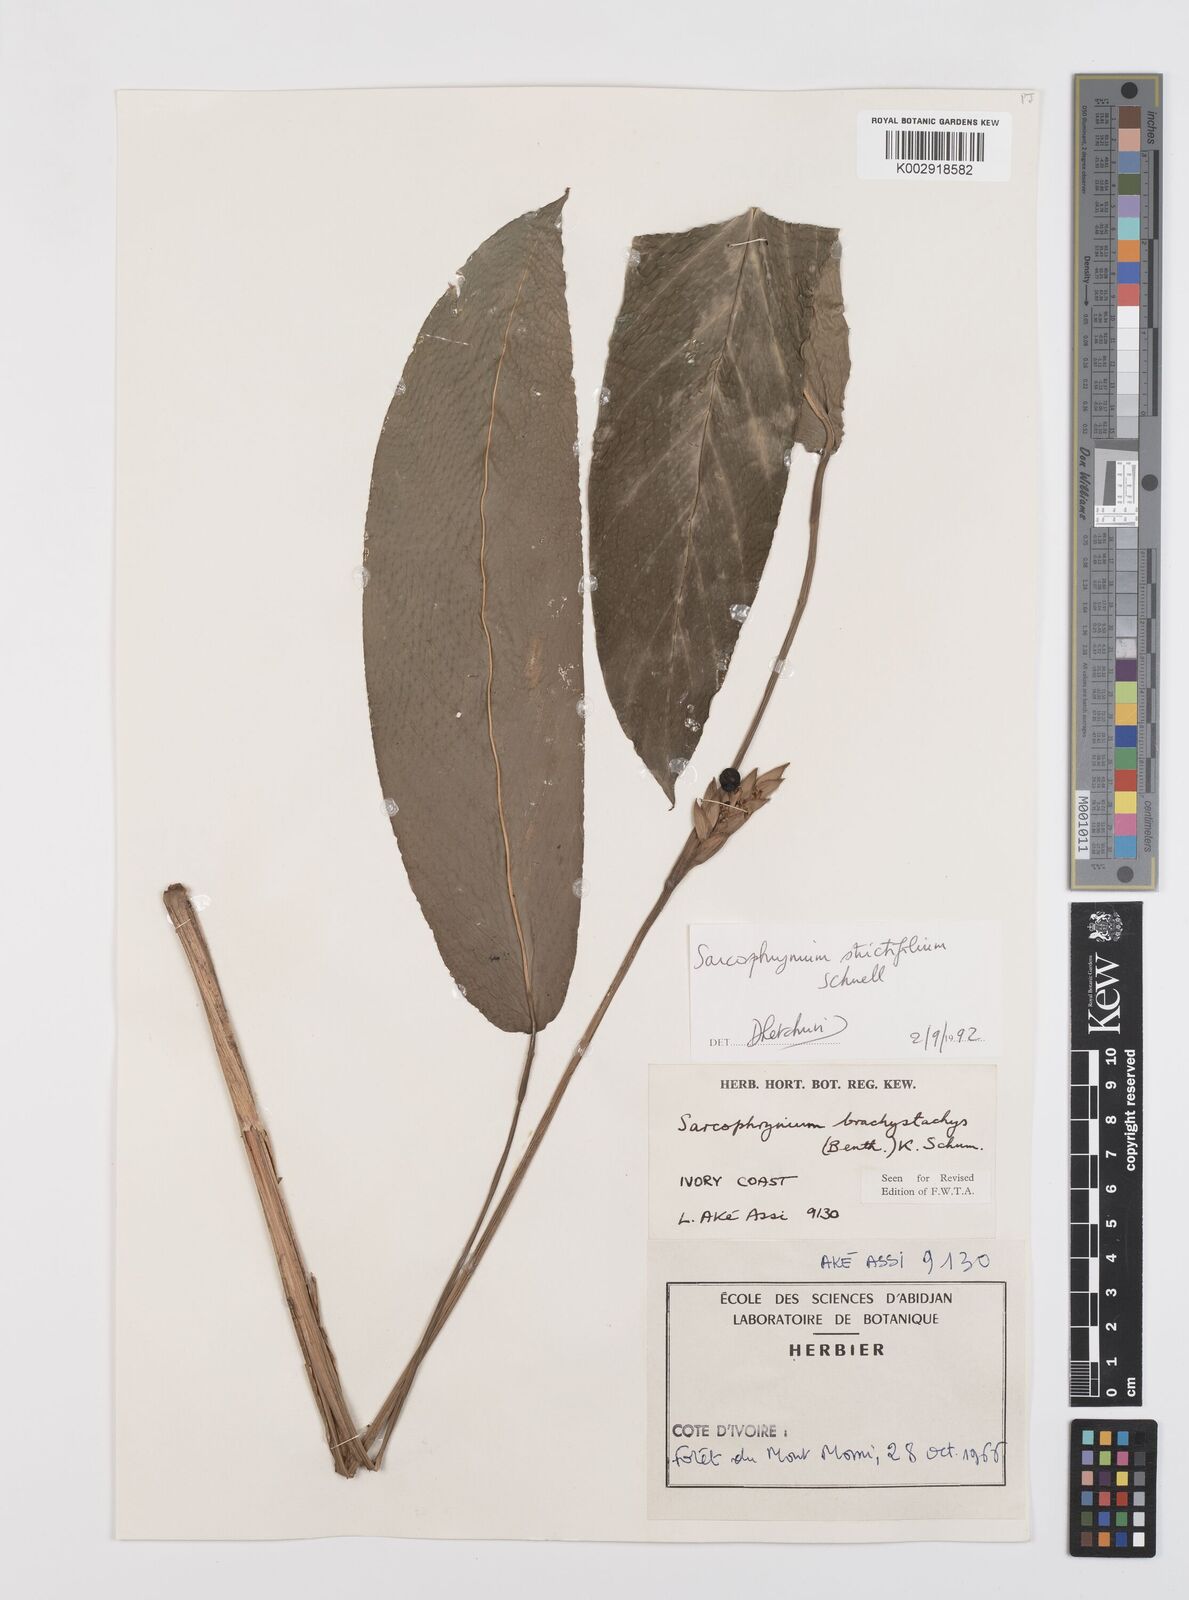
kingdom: Plantae
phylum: Tracheophyta
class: Liliopsida
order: Zingiberales
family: Marantaceae
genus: Sarcophrynium
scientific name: Sarcophrynium brachystachyum
